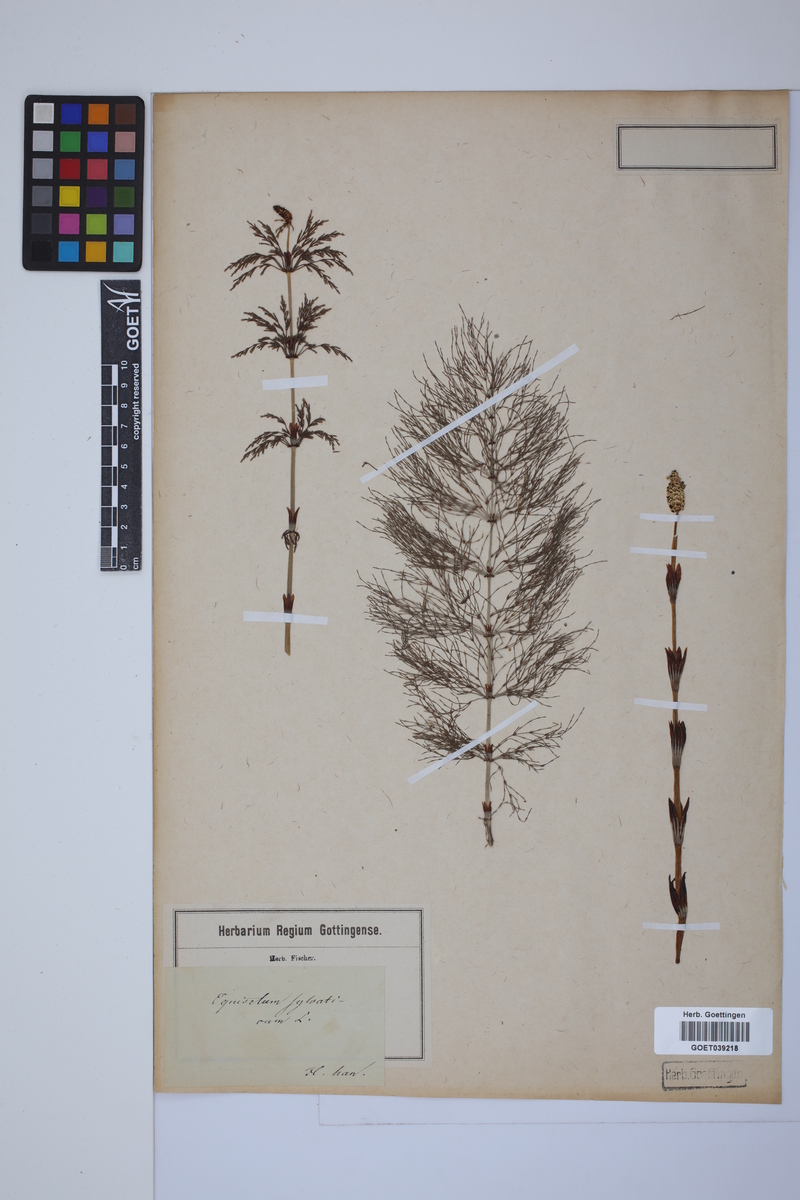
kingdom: Plantae
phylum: Tracheophyta
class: Polypodiopsida
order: Equisetales
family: Equisetaceae
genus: Equisetum
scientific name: Equisetum sylvaticum
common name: Wood horsetail
